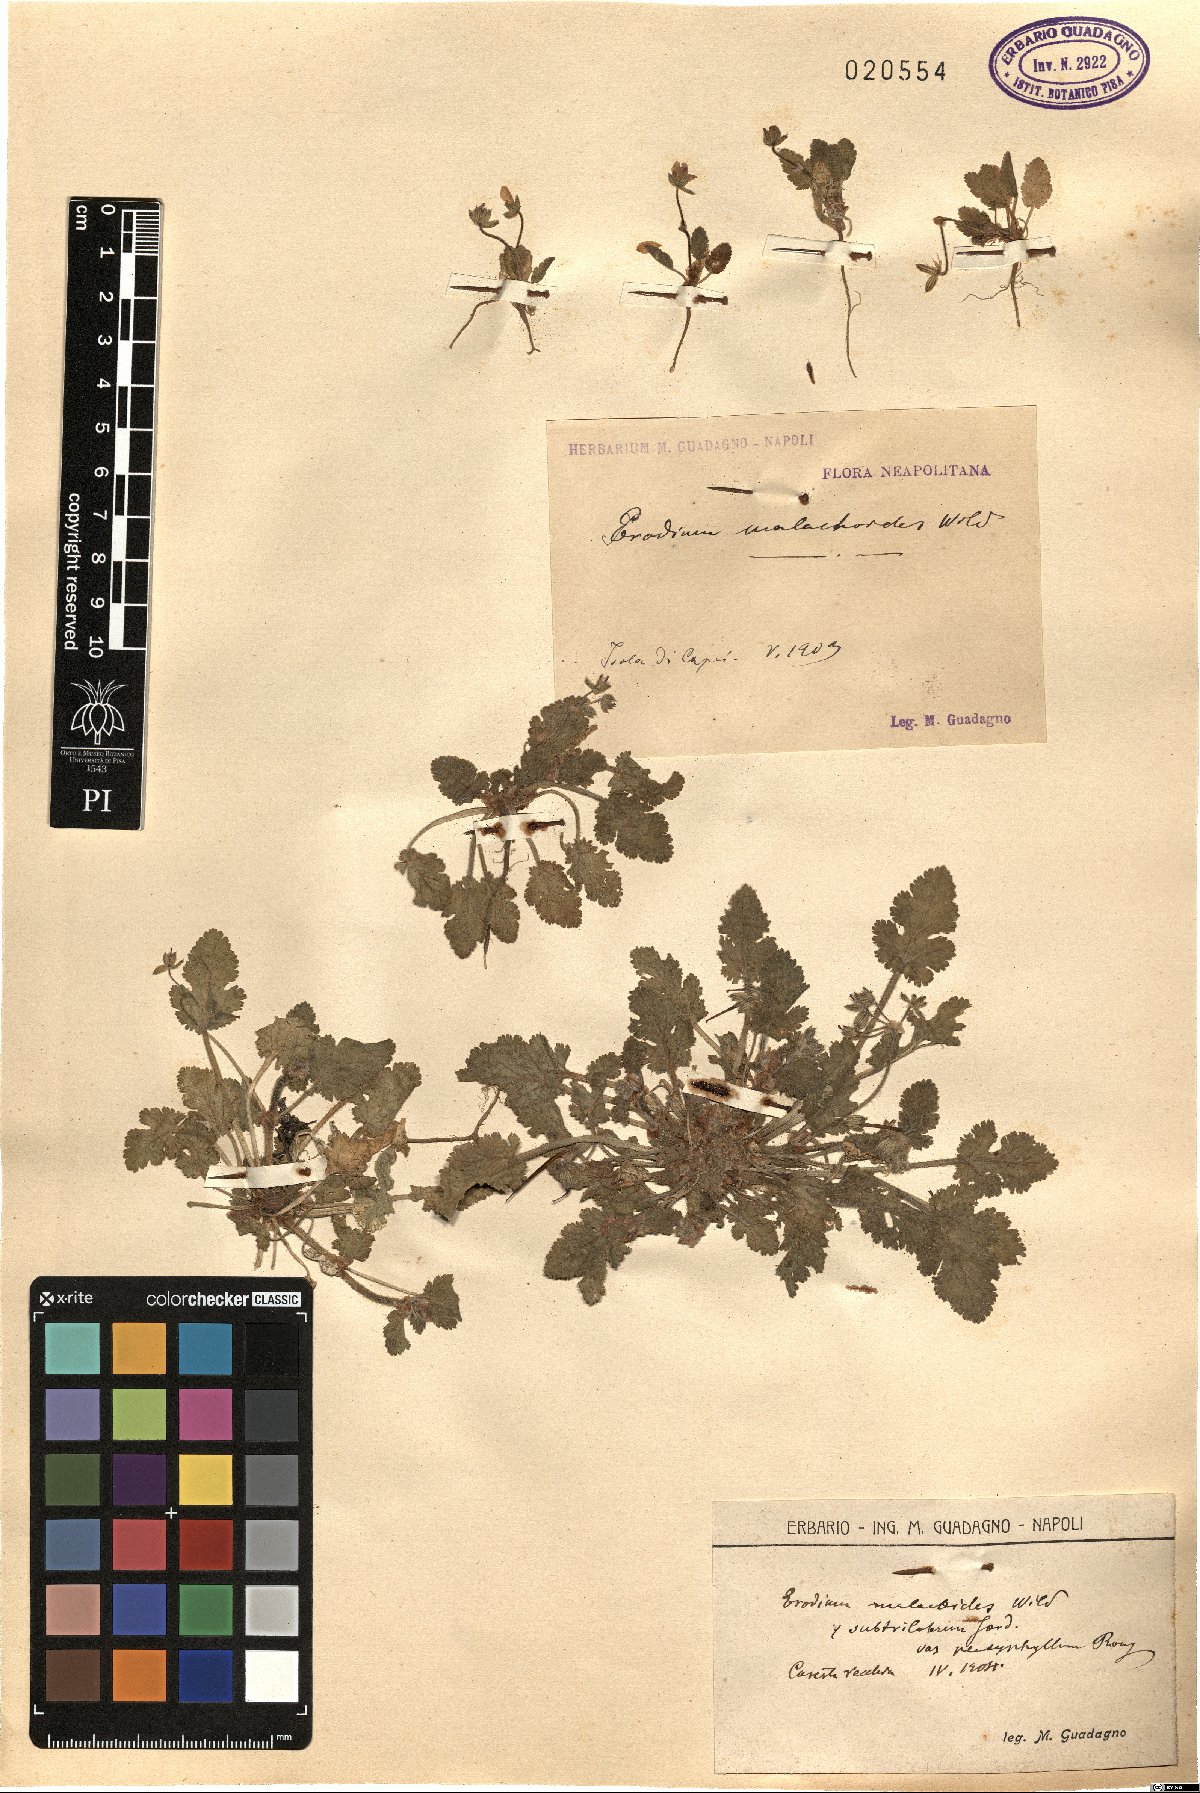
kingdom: Plantae
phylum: Tracheophyta
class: Magnoliopsida
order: Geraniales
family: Geraniaceae
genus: Erodium
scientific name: Erodium malacoides
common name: Soft stork's-bill
